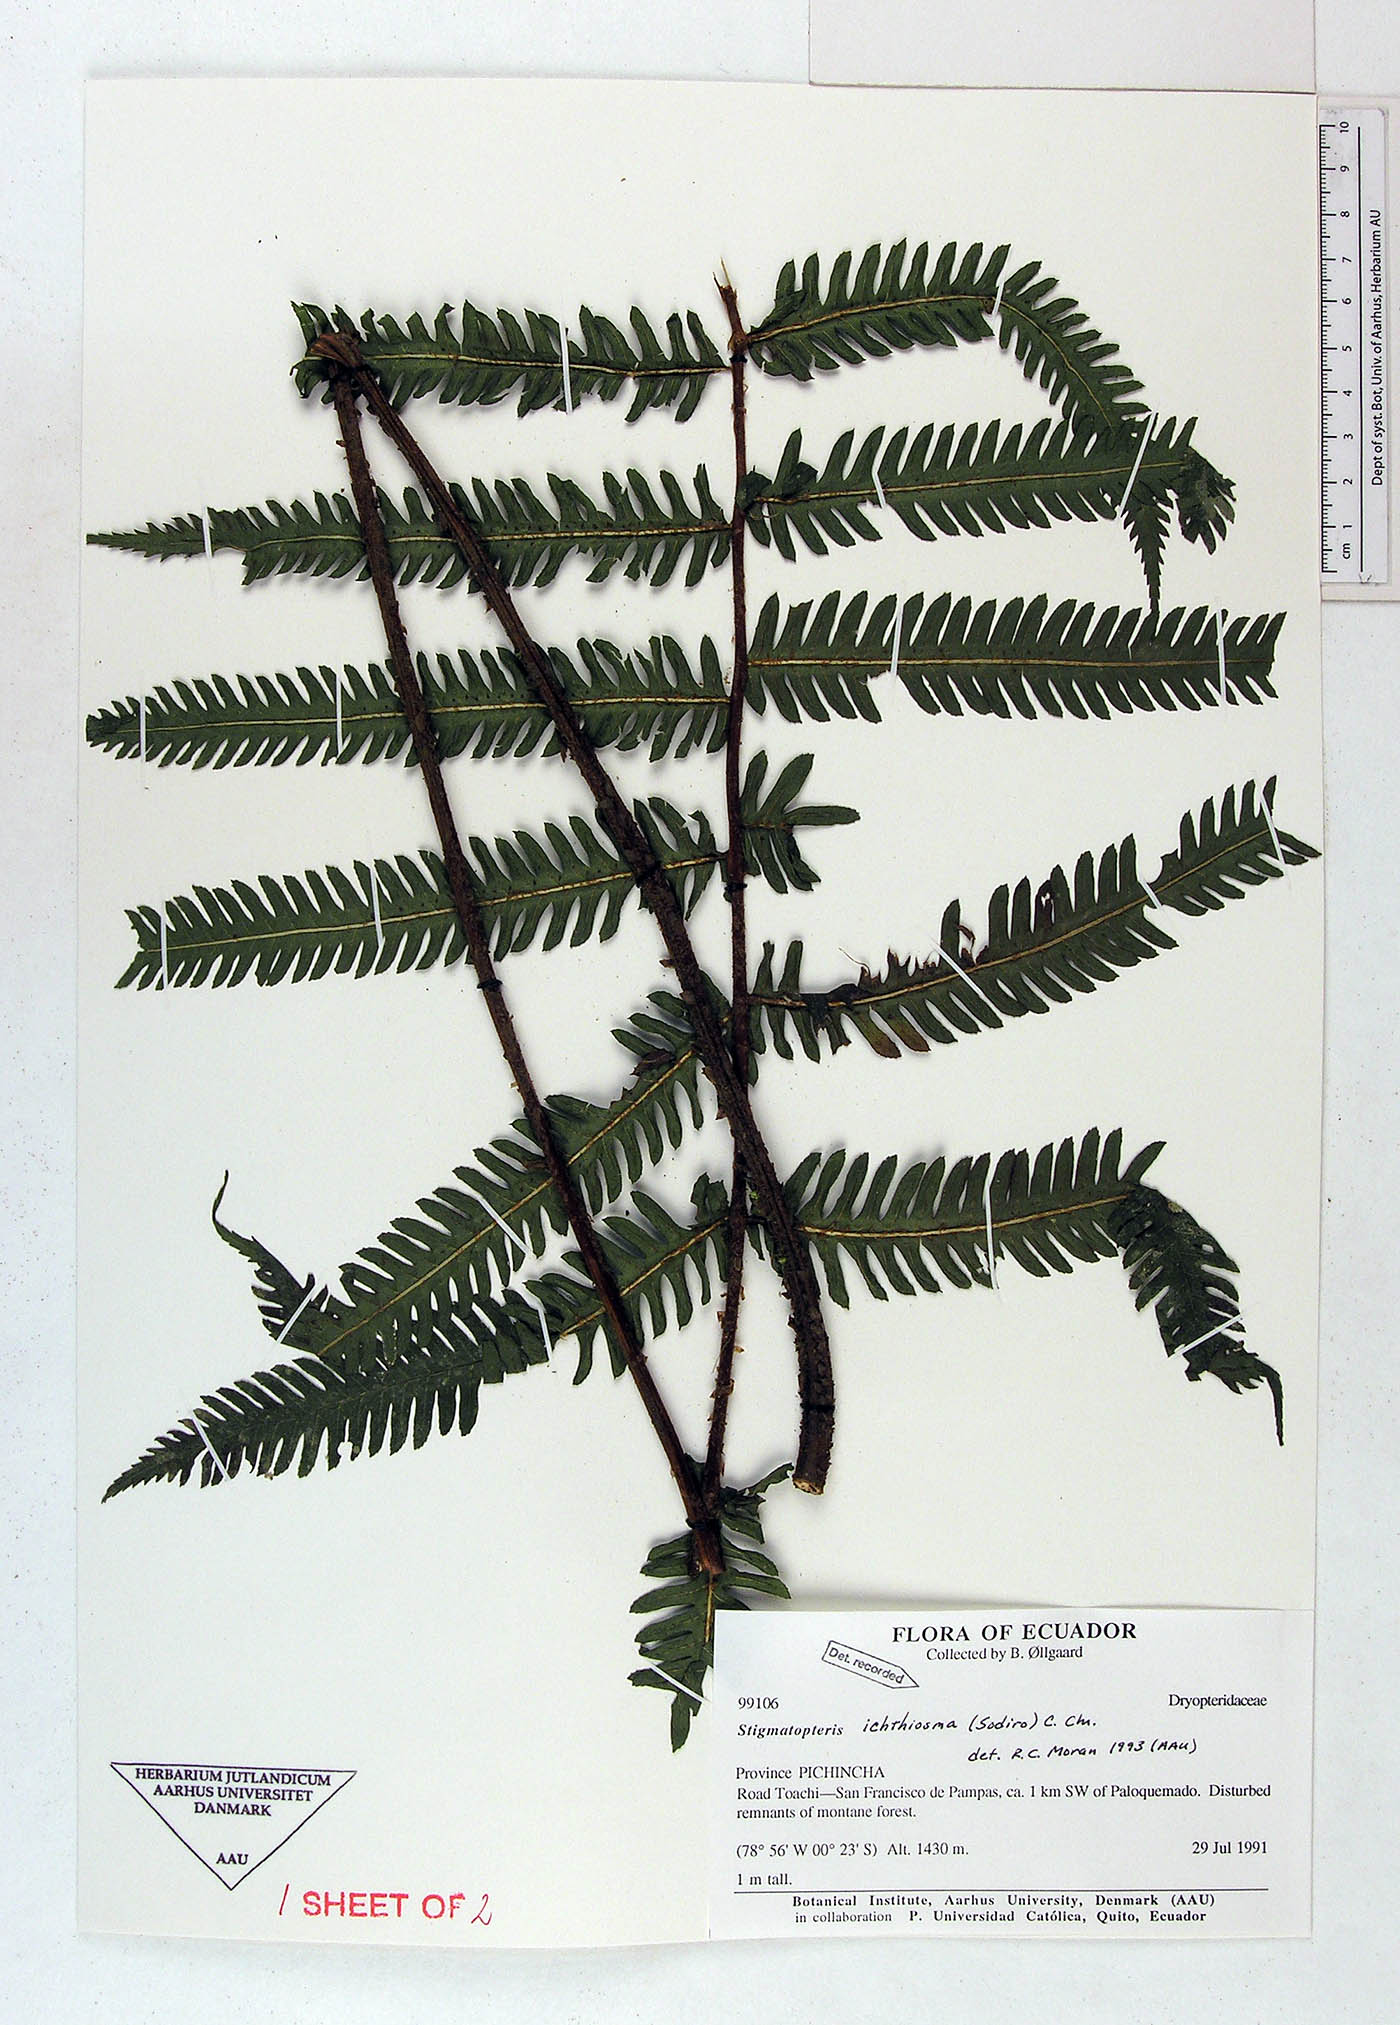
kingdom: Plantae
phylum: Tracheophyta
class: Polypodiopsida
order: Polypodiales
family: Dryopteridaceae
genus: Stigmatopteris
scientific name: Stigmatopteris ichtiosma
